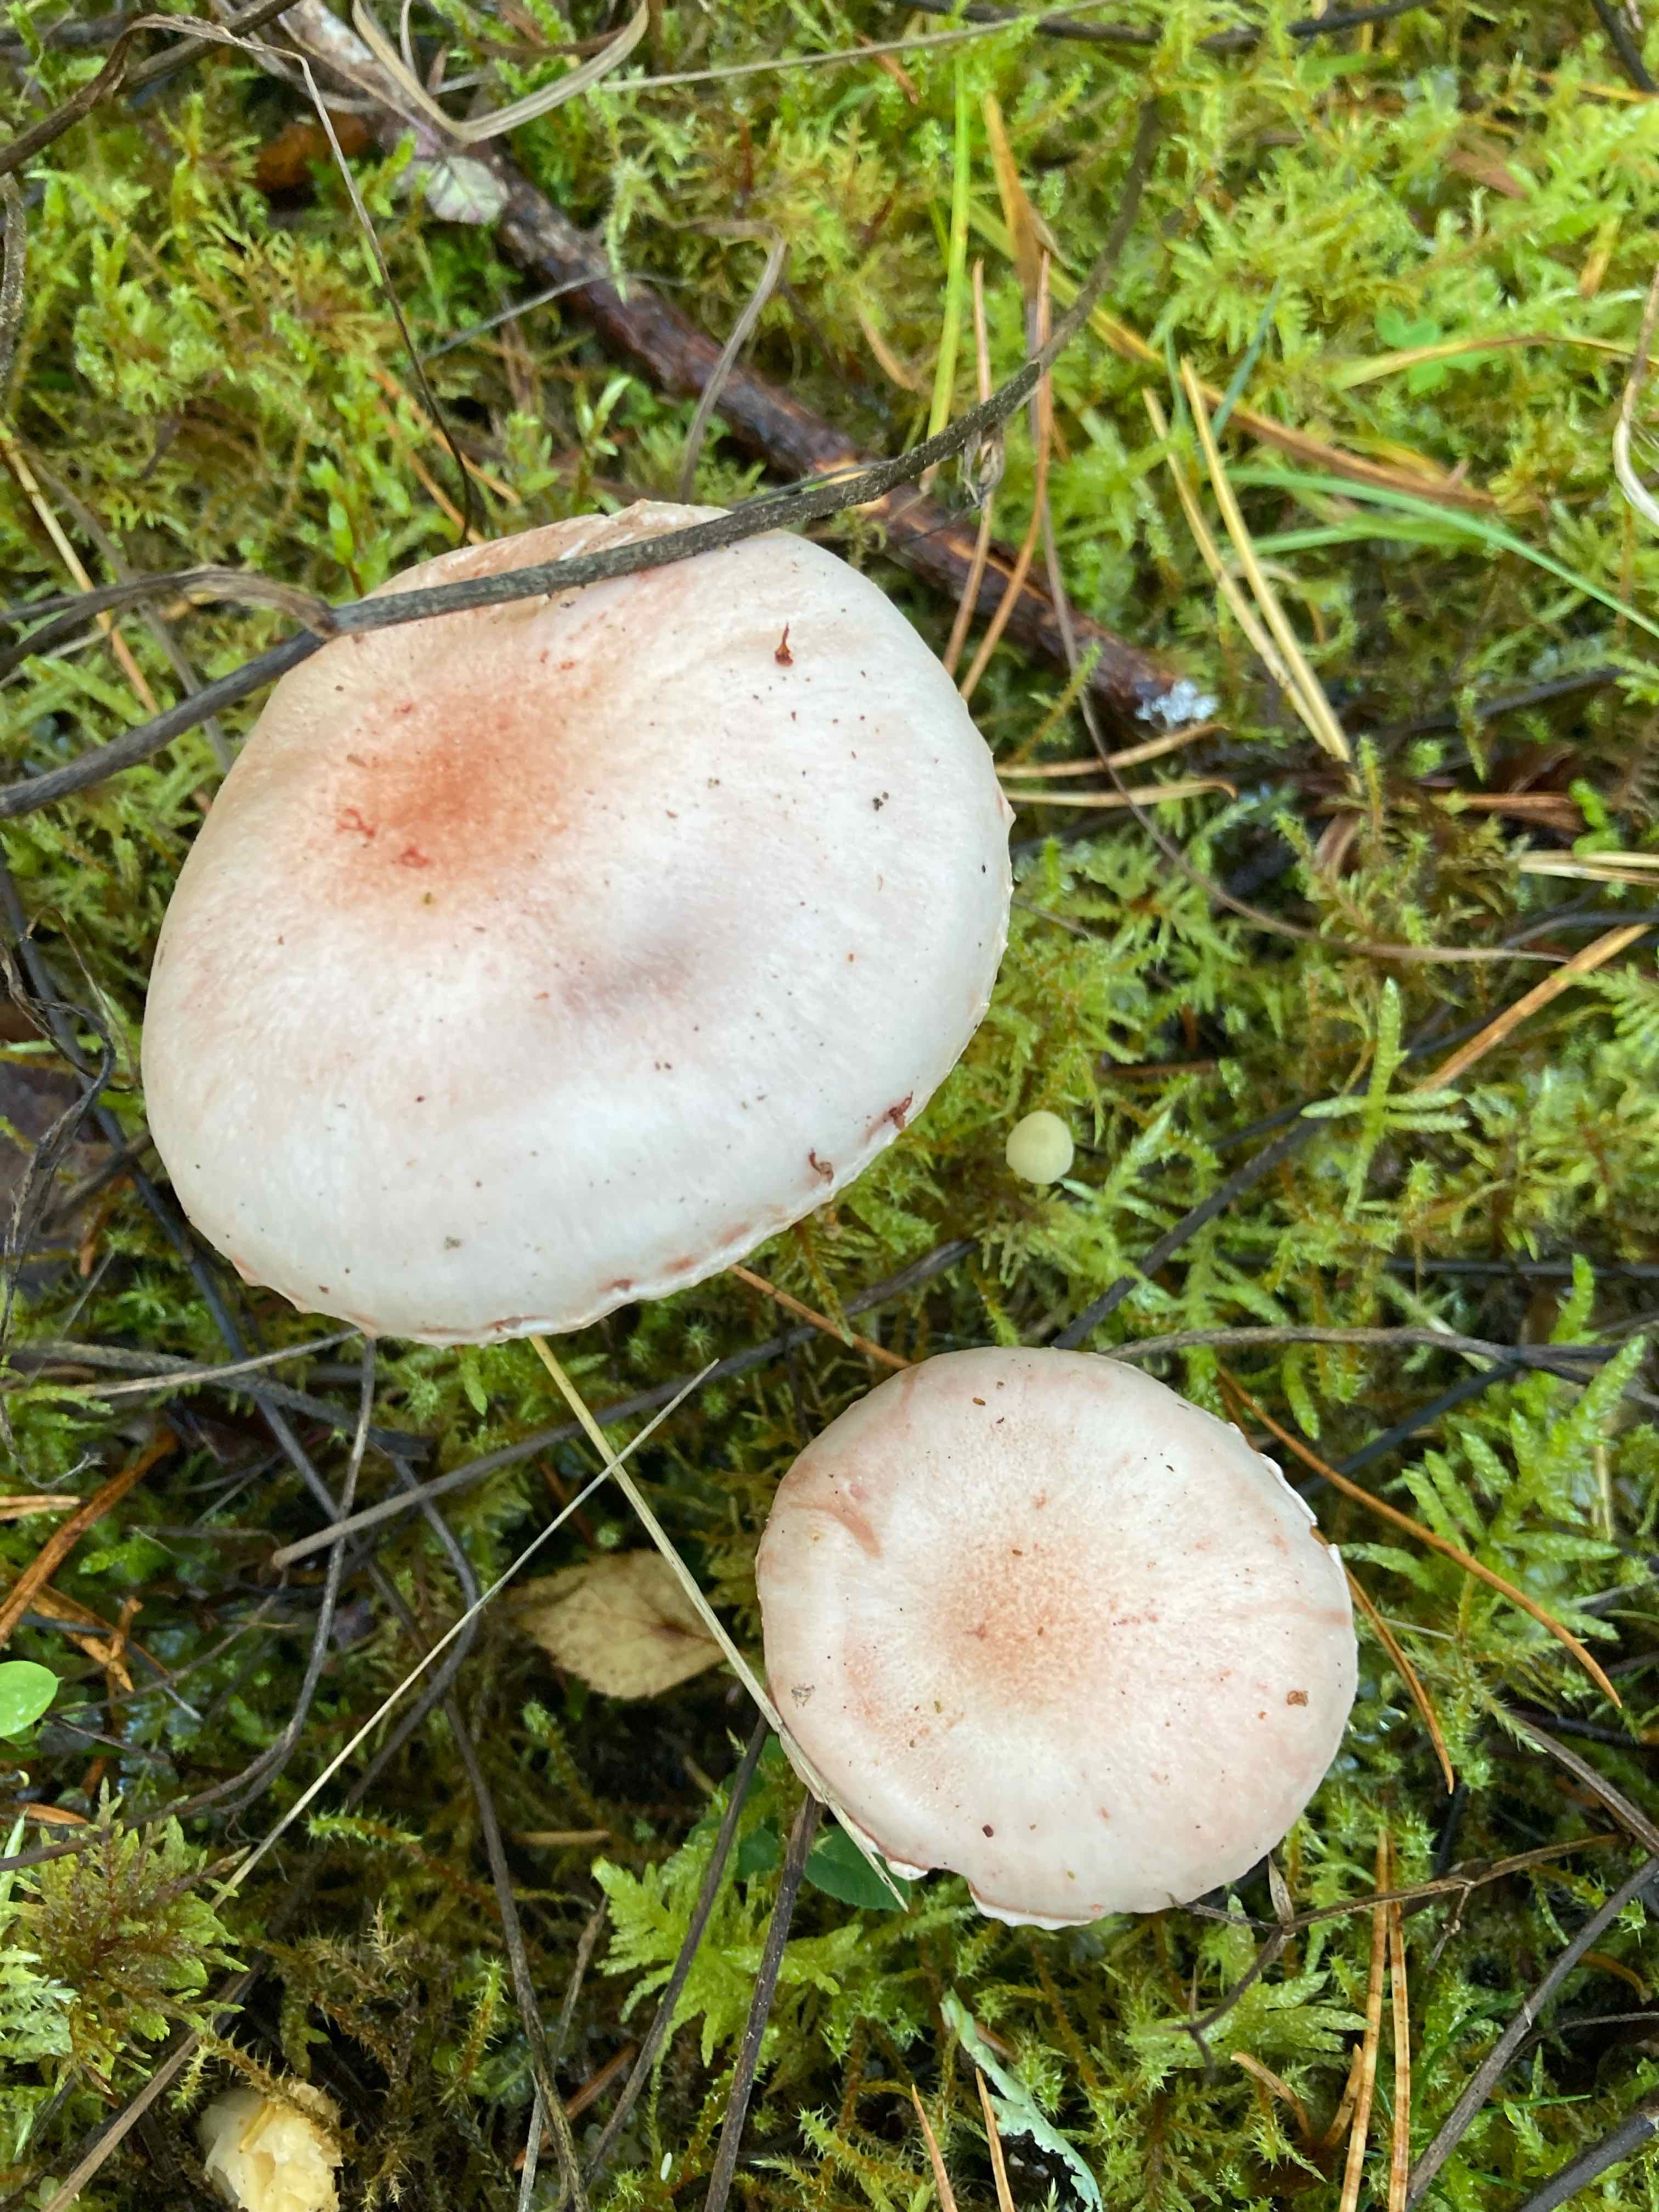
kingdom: Fungi
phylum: Basidiomycota
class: Agaricomycetes
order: Agaricales
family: Hygrophoraceae
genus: Hygrophorus
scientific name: Hygrophorus
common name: sneglehat
